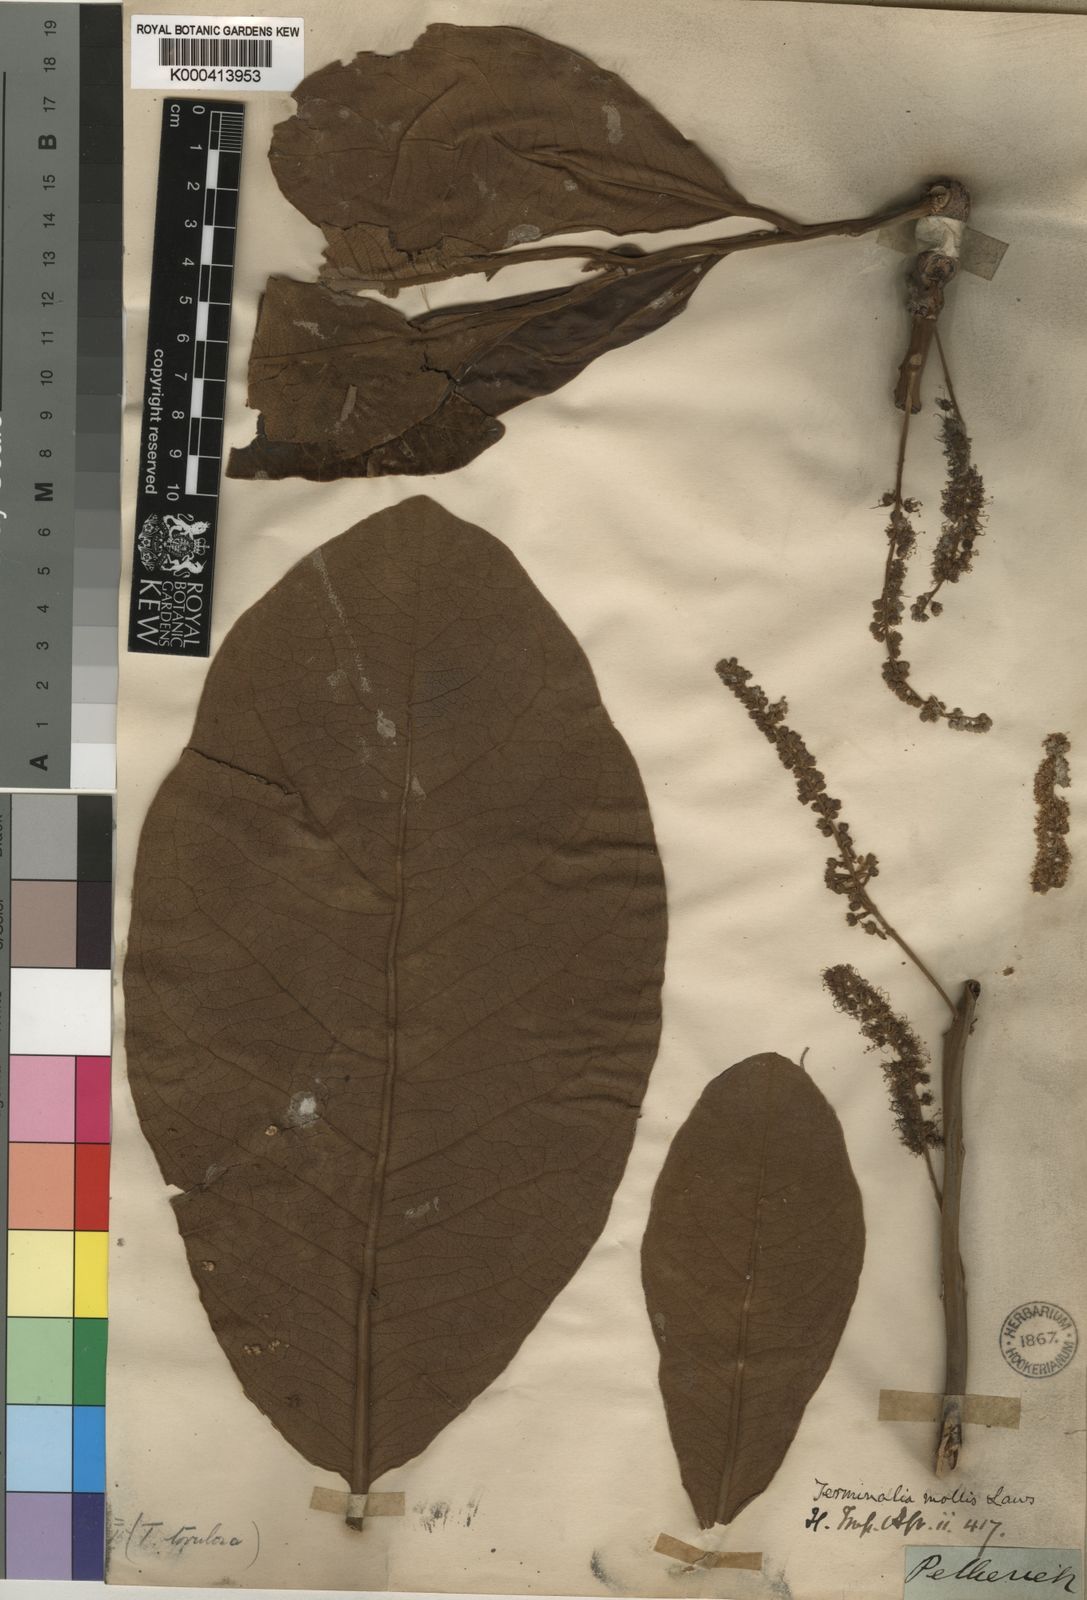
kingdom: Plantae
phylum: Tracheophyta
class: Magnoliopsida
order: Myrtales
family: Combretaceae
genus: Terminalia
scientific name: Terminalia mollis
